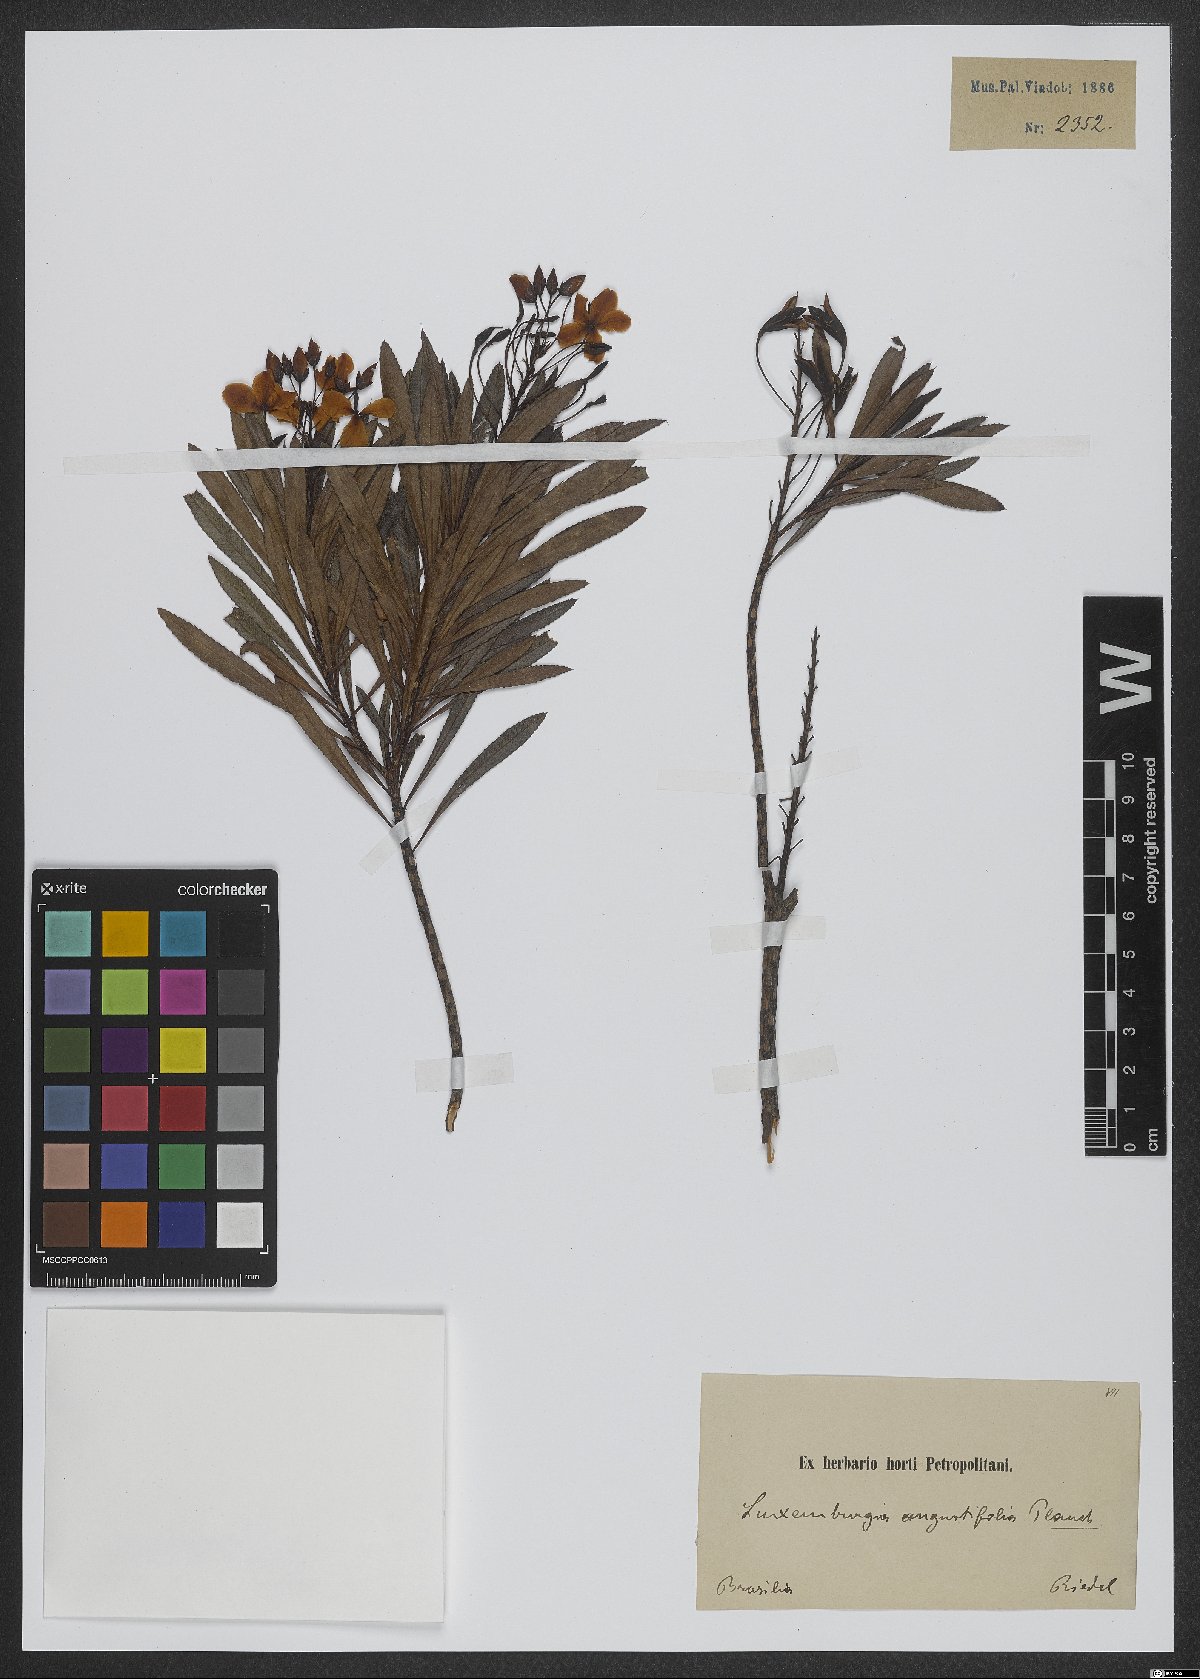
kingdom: Plantae
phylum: Tracheophyta
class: Magnoliopsida
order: Malpighiales
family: Ochnaceae
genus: Luxemburgia
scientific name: Luxemburgia angustifolia
